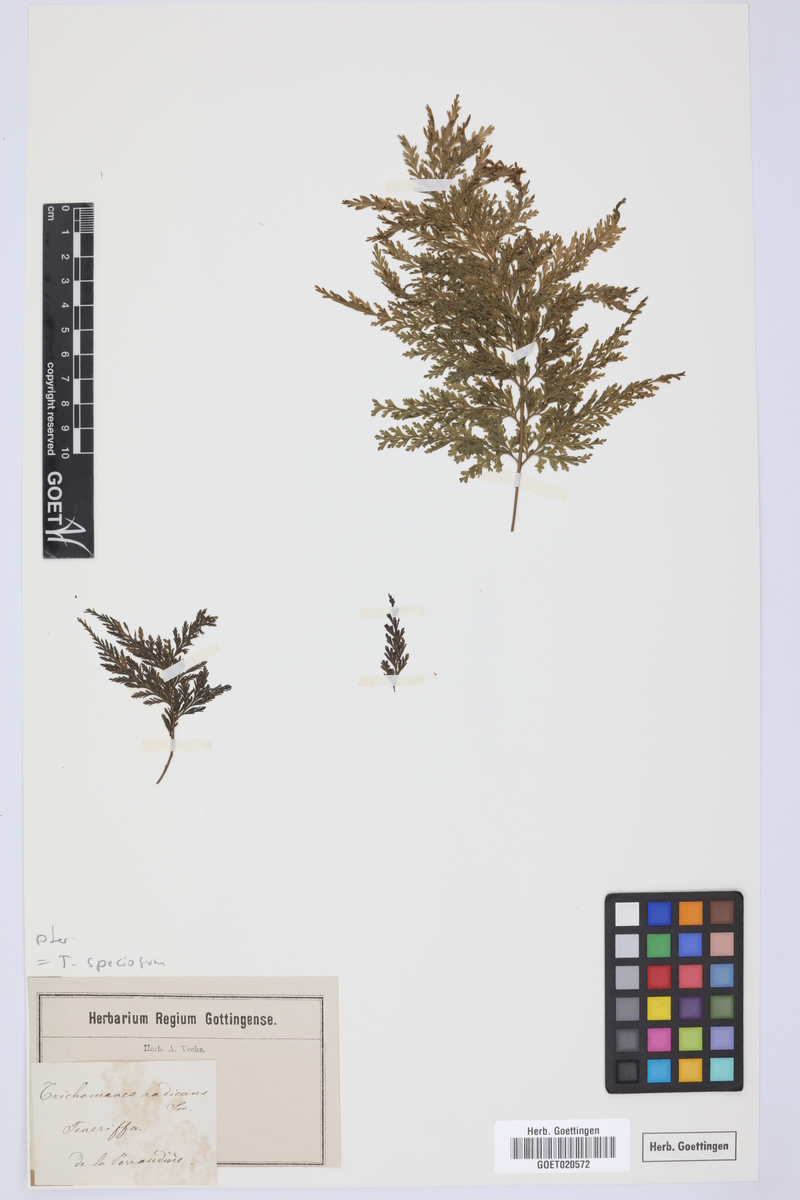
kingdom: Plantae
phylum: Tracheophyta
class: Polypodiopsida
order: Hymenophyllales
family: Hymenophyllaceae
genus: Vandenboschia
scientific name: Vandenboschia speciosa
